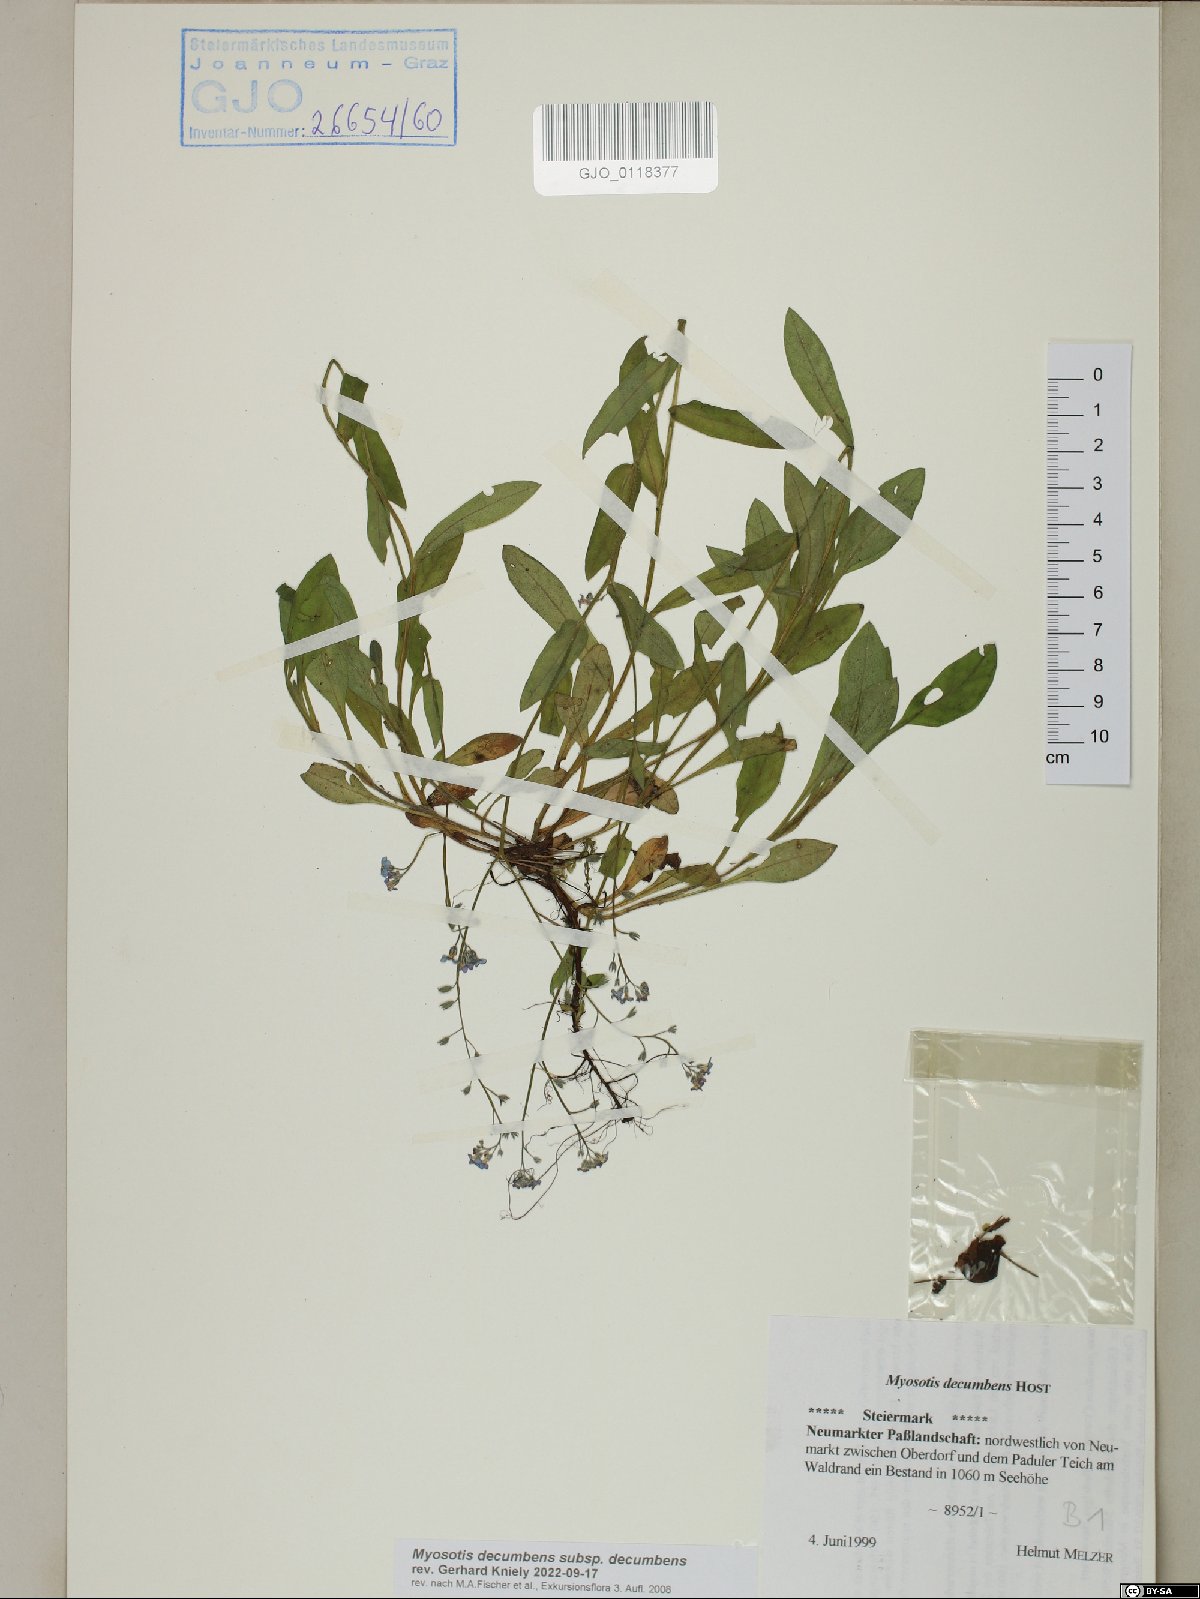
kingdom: Plantae
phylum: Tracheophyta
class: Magnoliopsida
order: Boraginales
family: Boraginaceae
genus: Myosotis
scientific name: Myosotis decumbens
